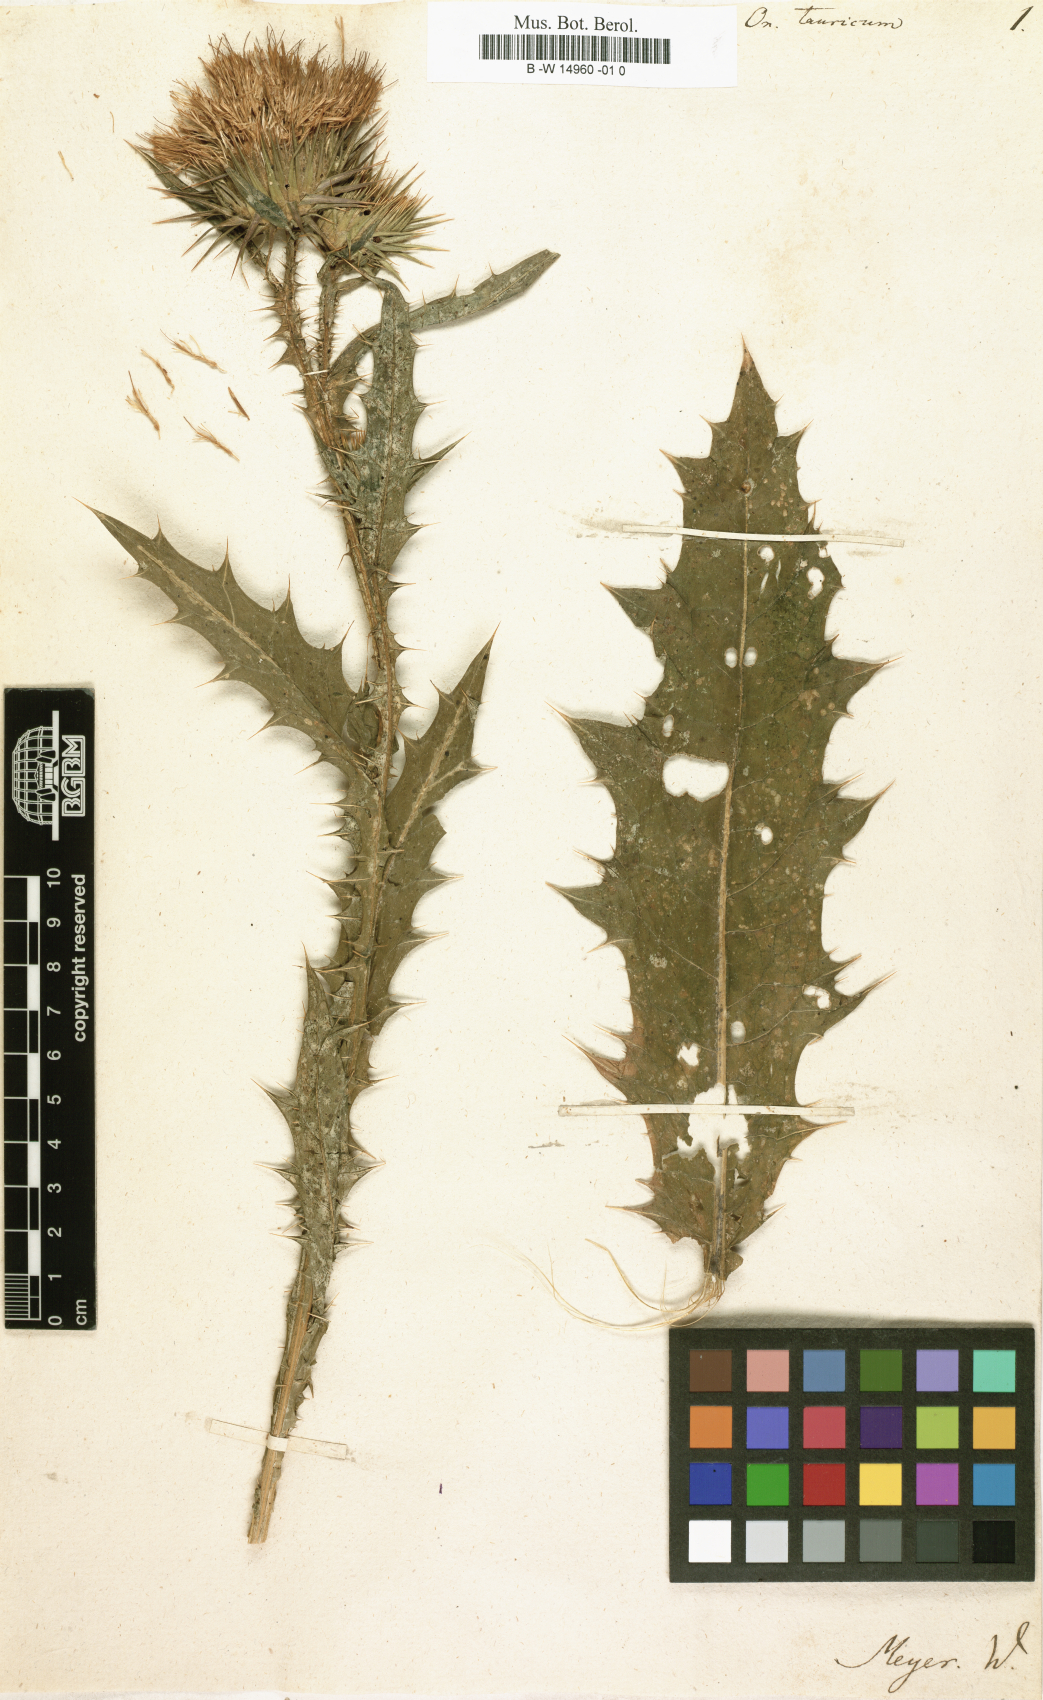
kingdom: Plantae
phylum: Tracheophyta
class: Magnoliopsida
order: Asterales
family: Asteraceae
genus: Onopordum
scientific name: Onopordum tauricum
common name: Bull cottonthistle
